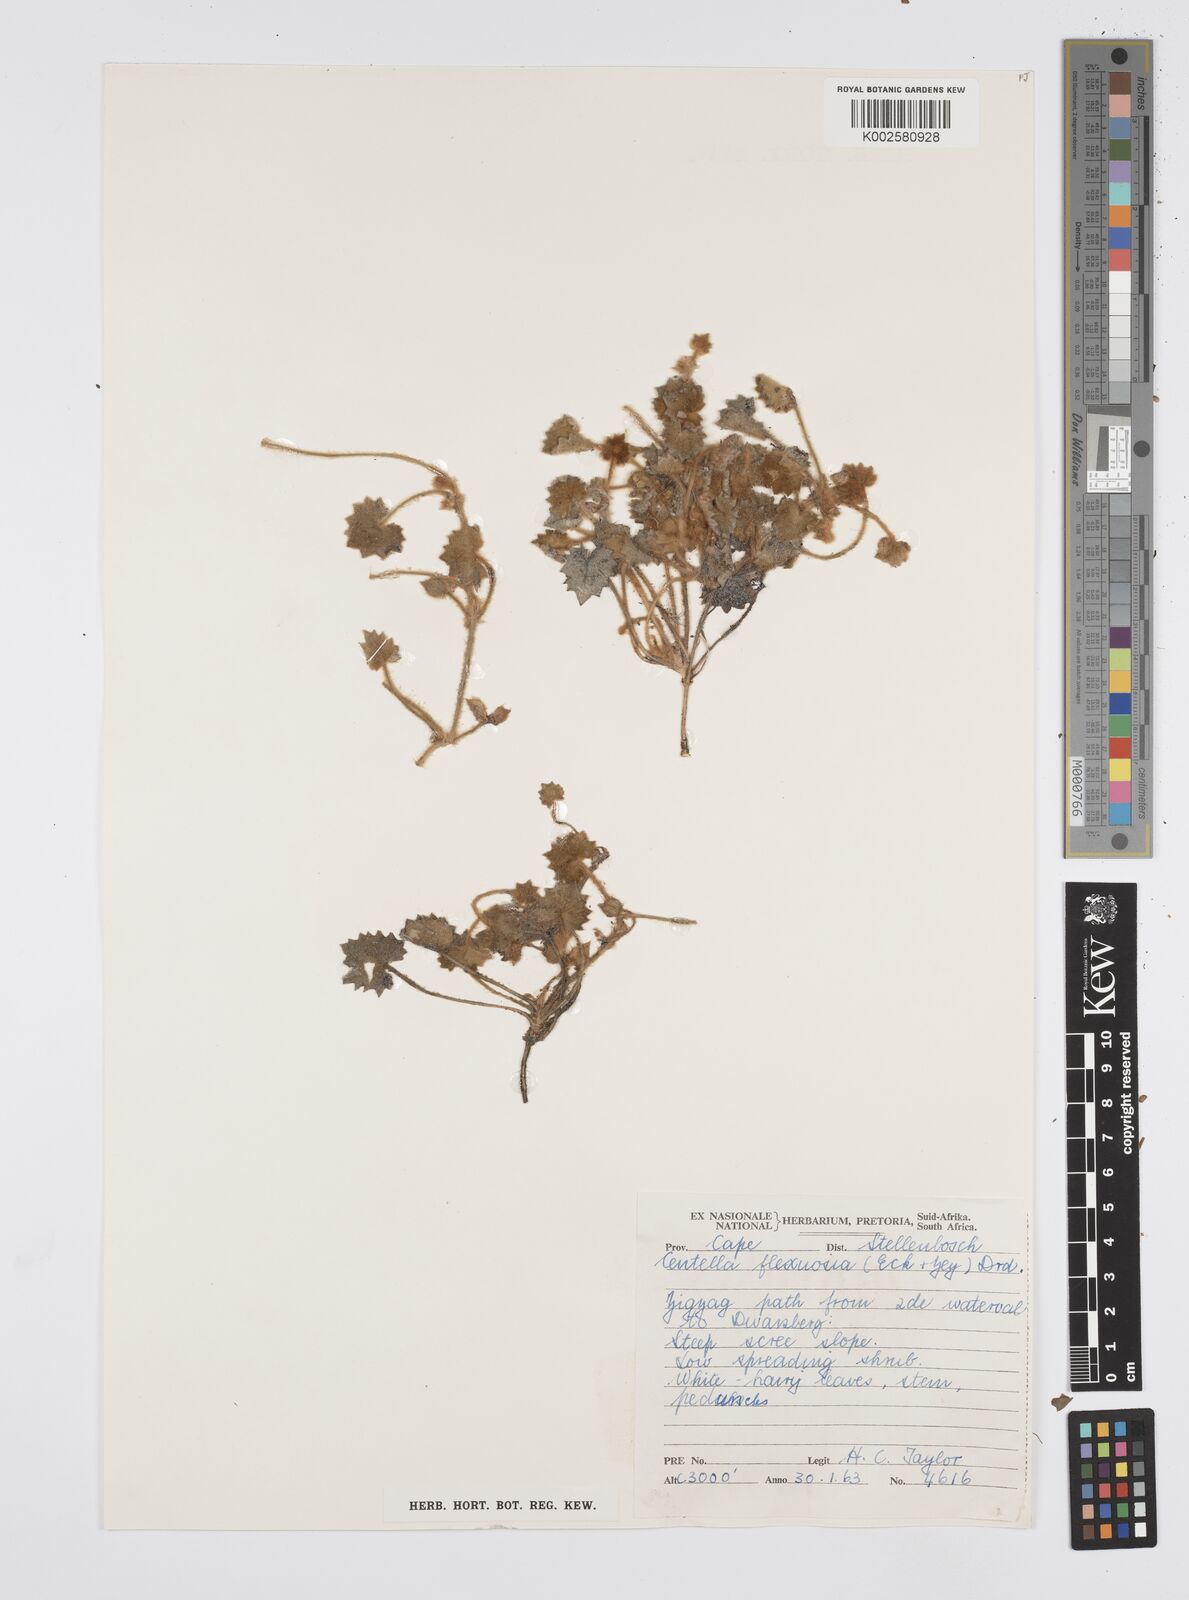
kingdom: Plantae
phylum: Tracheophyta
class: Magnoliopsida
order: Apiales
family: Apiaceae
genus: Centella
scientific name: Centella flexuosa
